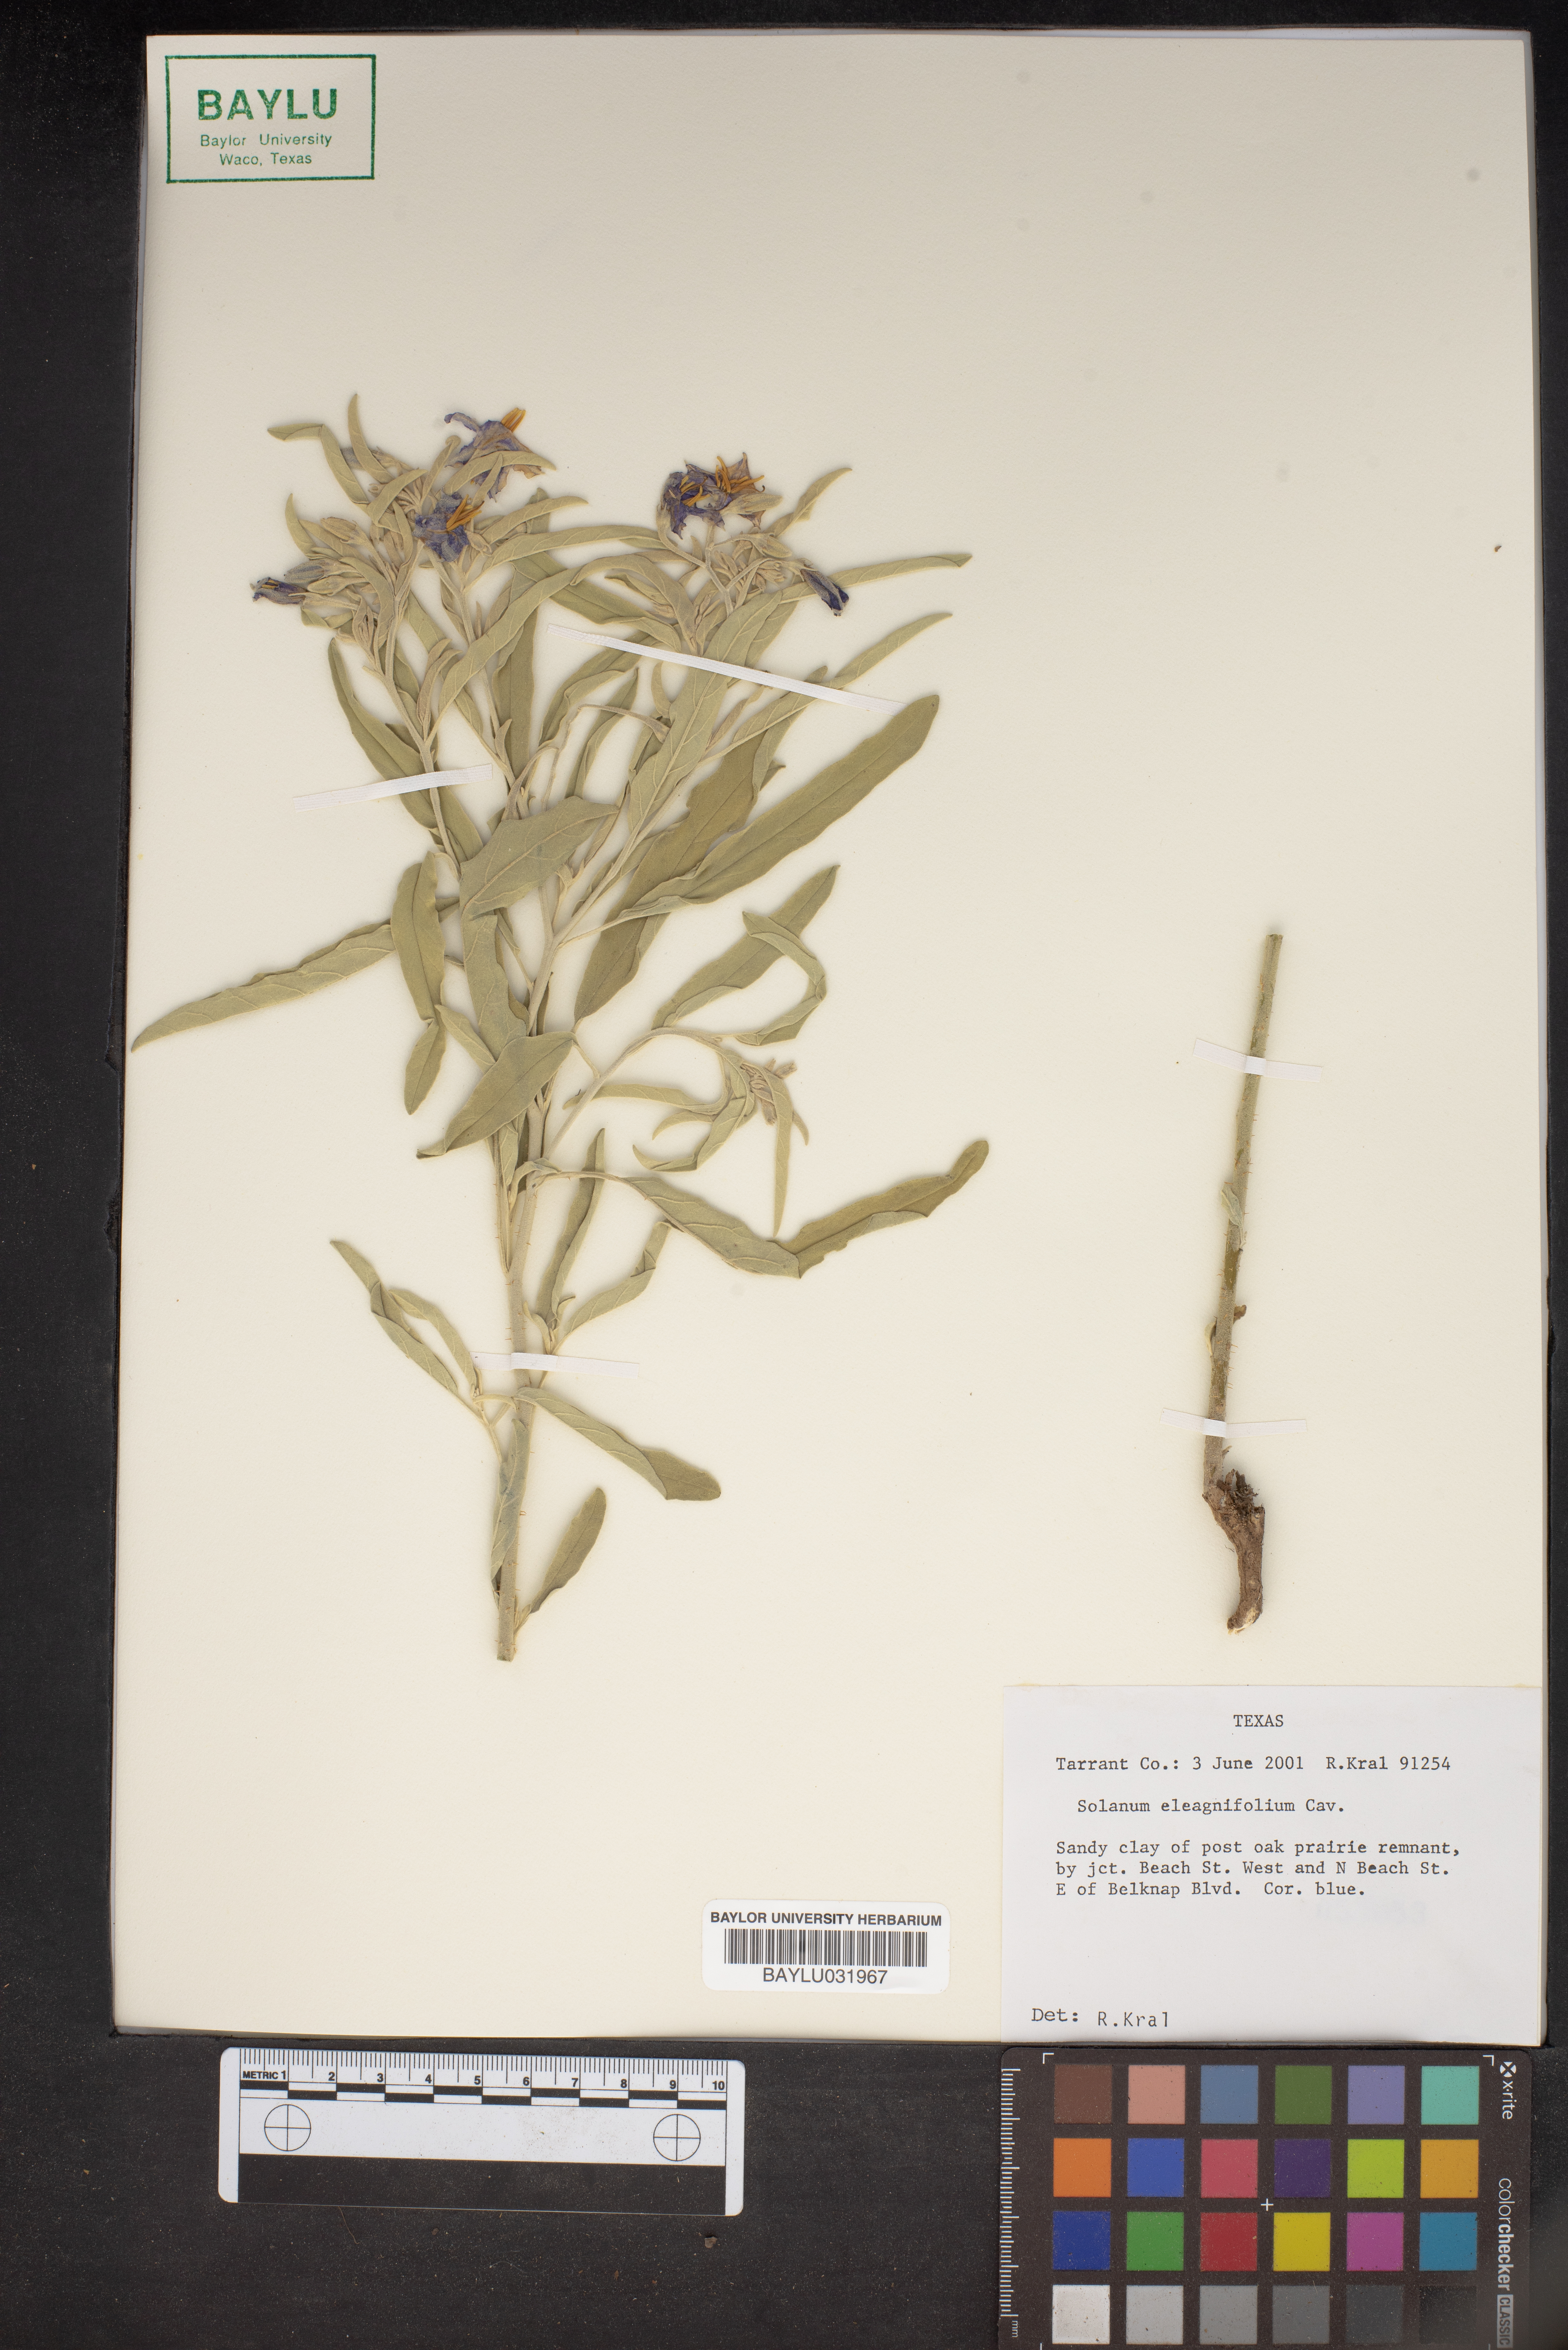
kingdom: Plantae
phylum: Tracheophyta
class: Magnoliopsida
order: Solanales
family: Solanaceae
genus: Solanum
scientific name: Solanum elaeagnifolium
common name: Silverleaf nightshade
